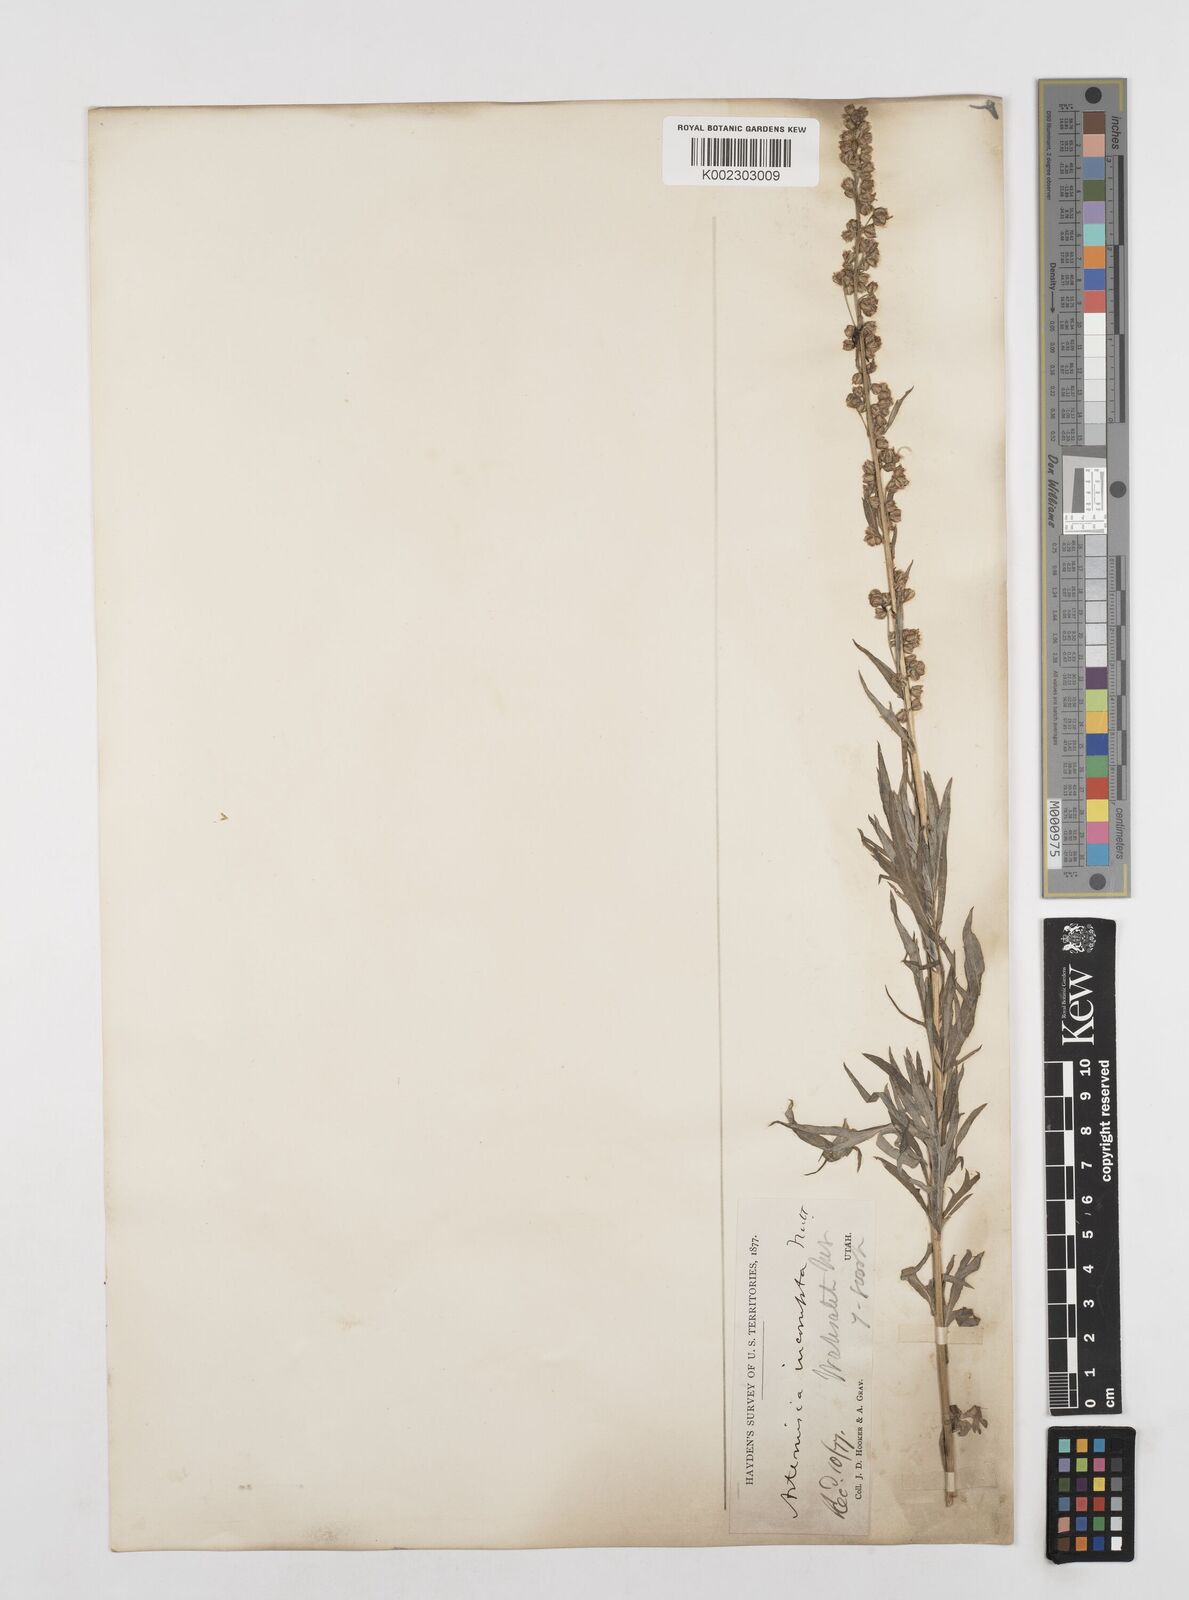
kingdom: Plantae
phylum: Tracheophyta
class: Magnoliopsida
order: Asterales
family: Asteraceae
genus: Artemisia
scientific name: Artemisia michauxiana
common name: Lemon sagewort
